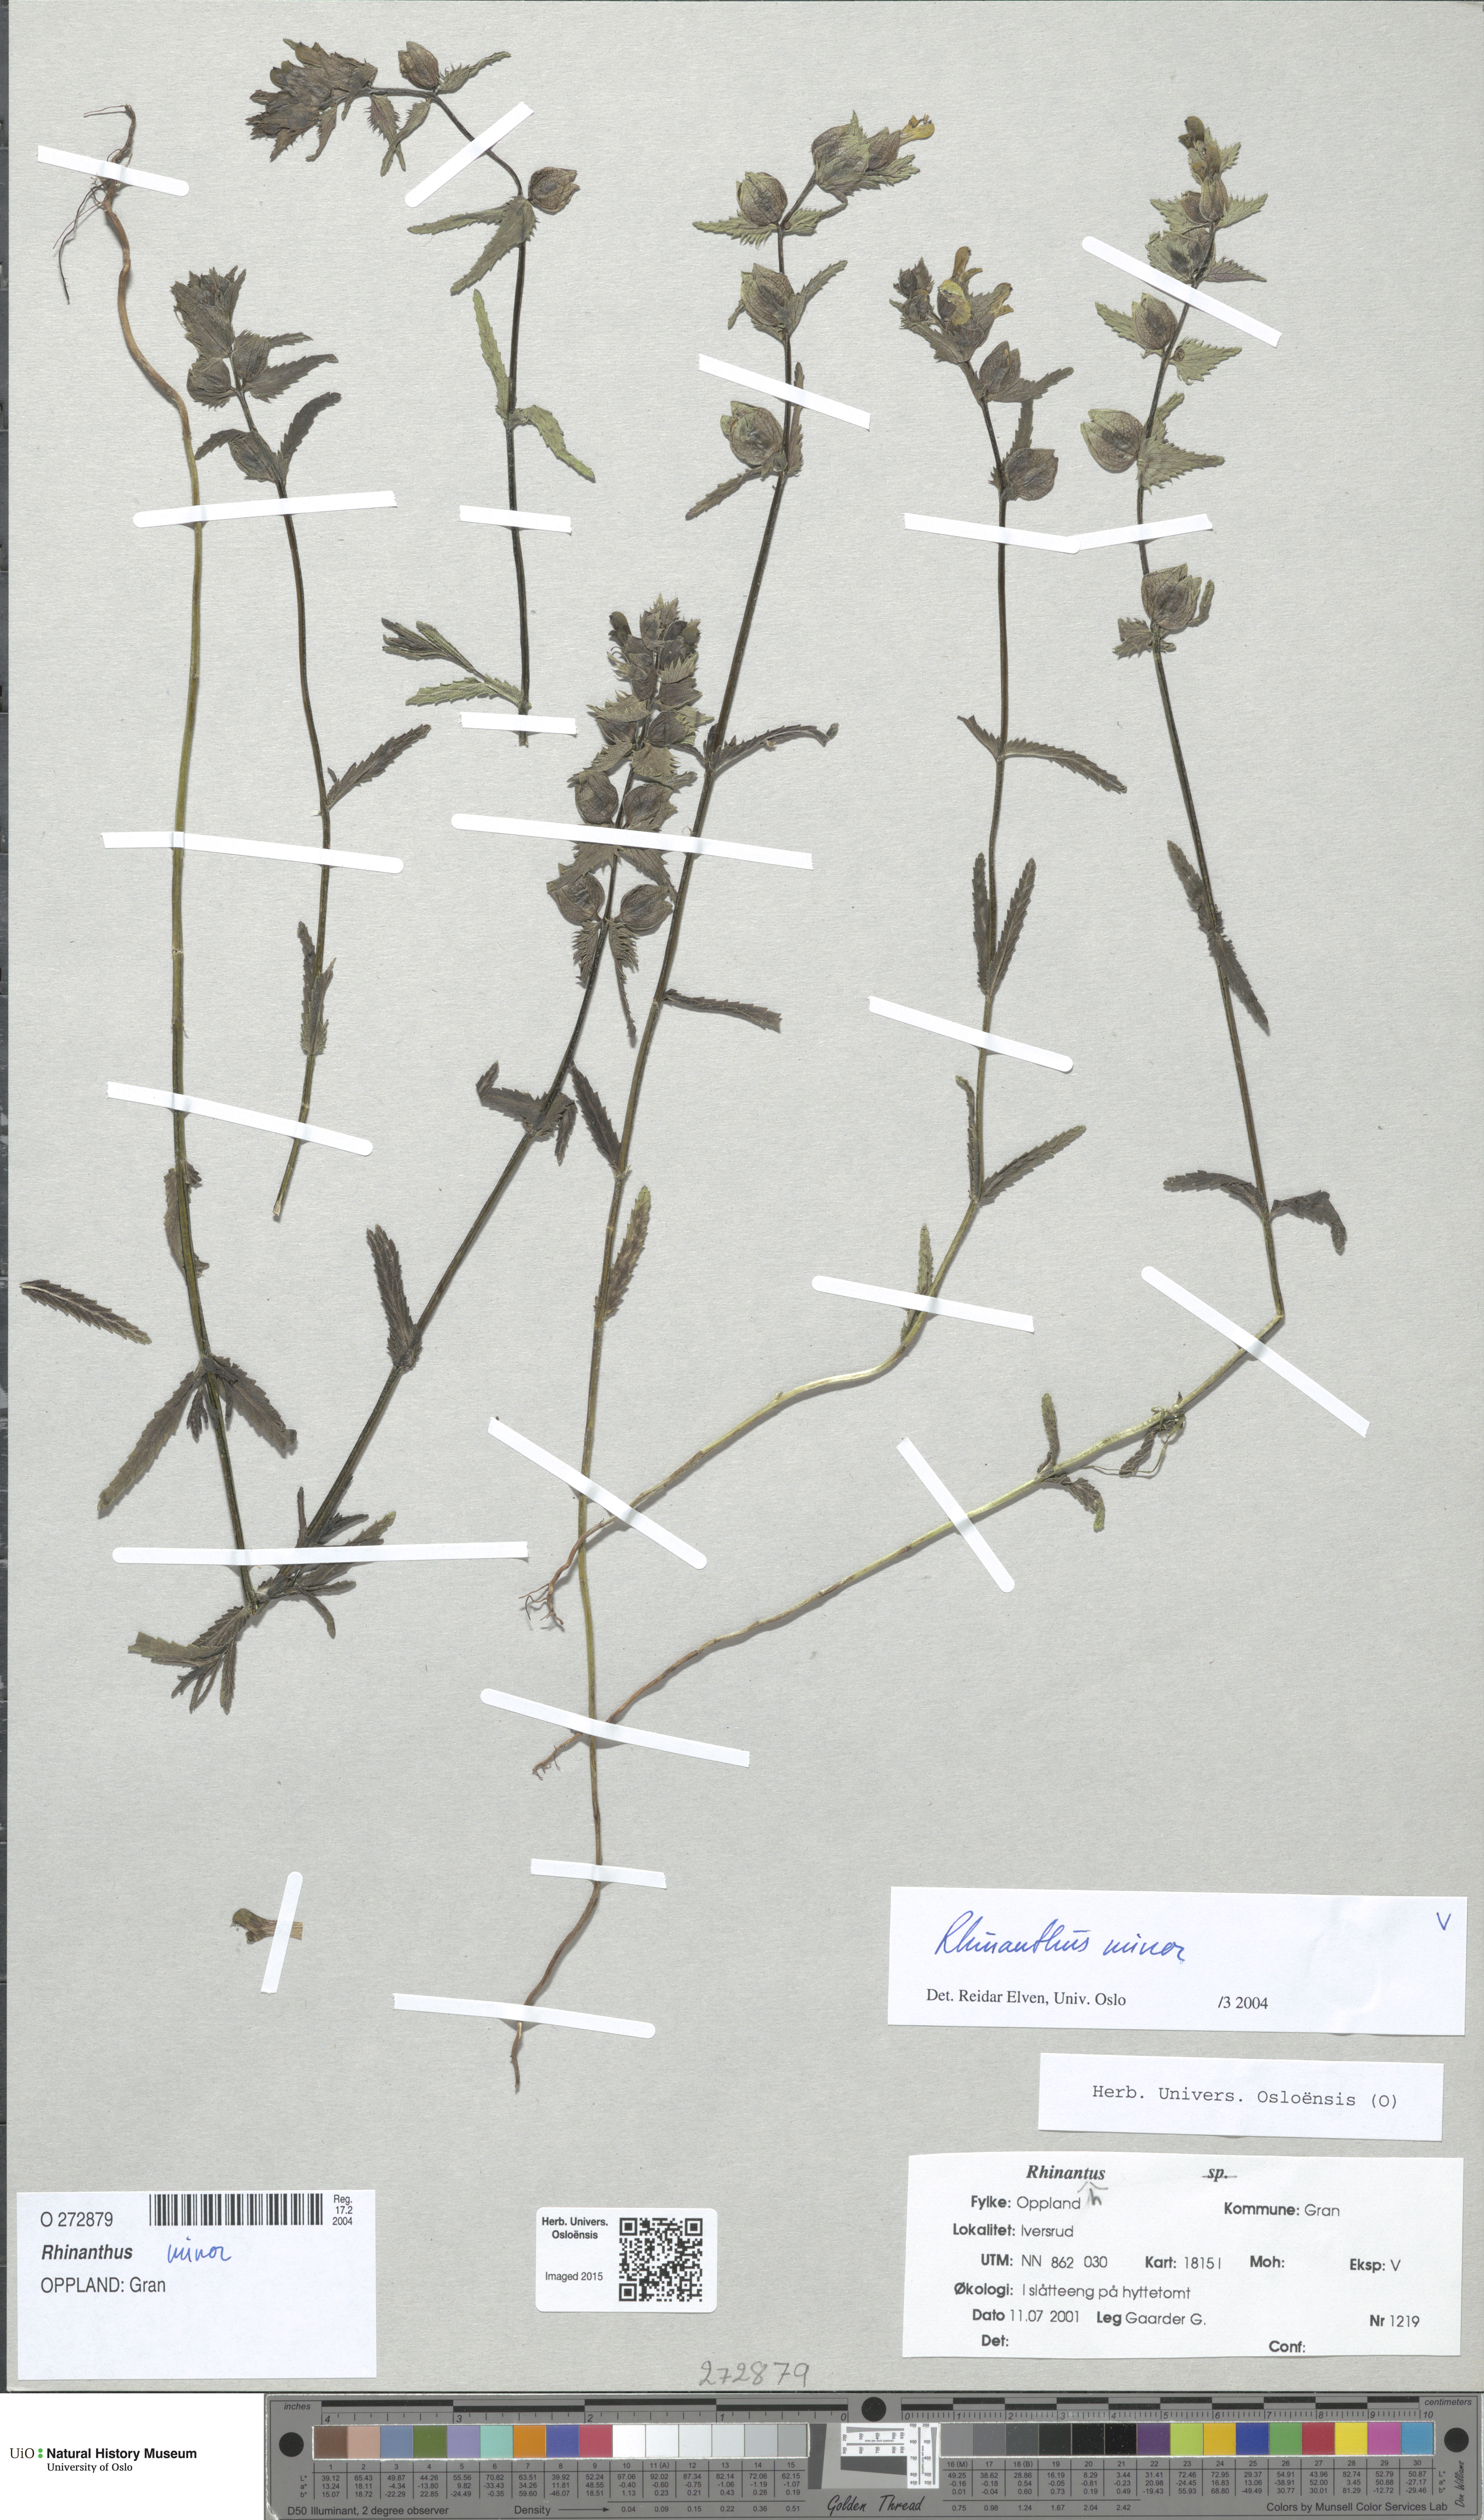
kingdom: Plantae
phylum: Tracheophyta
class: Magnoliopsida
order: Lamiales
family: Orobanchaceae
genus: Rhinanthus
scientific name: Rhinanthus minor
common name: Yellow-rattle
